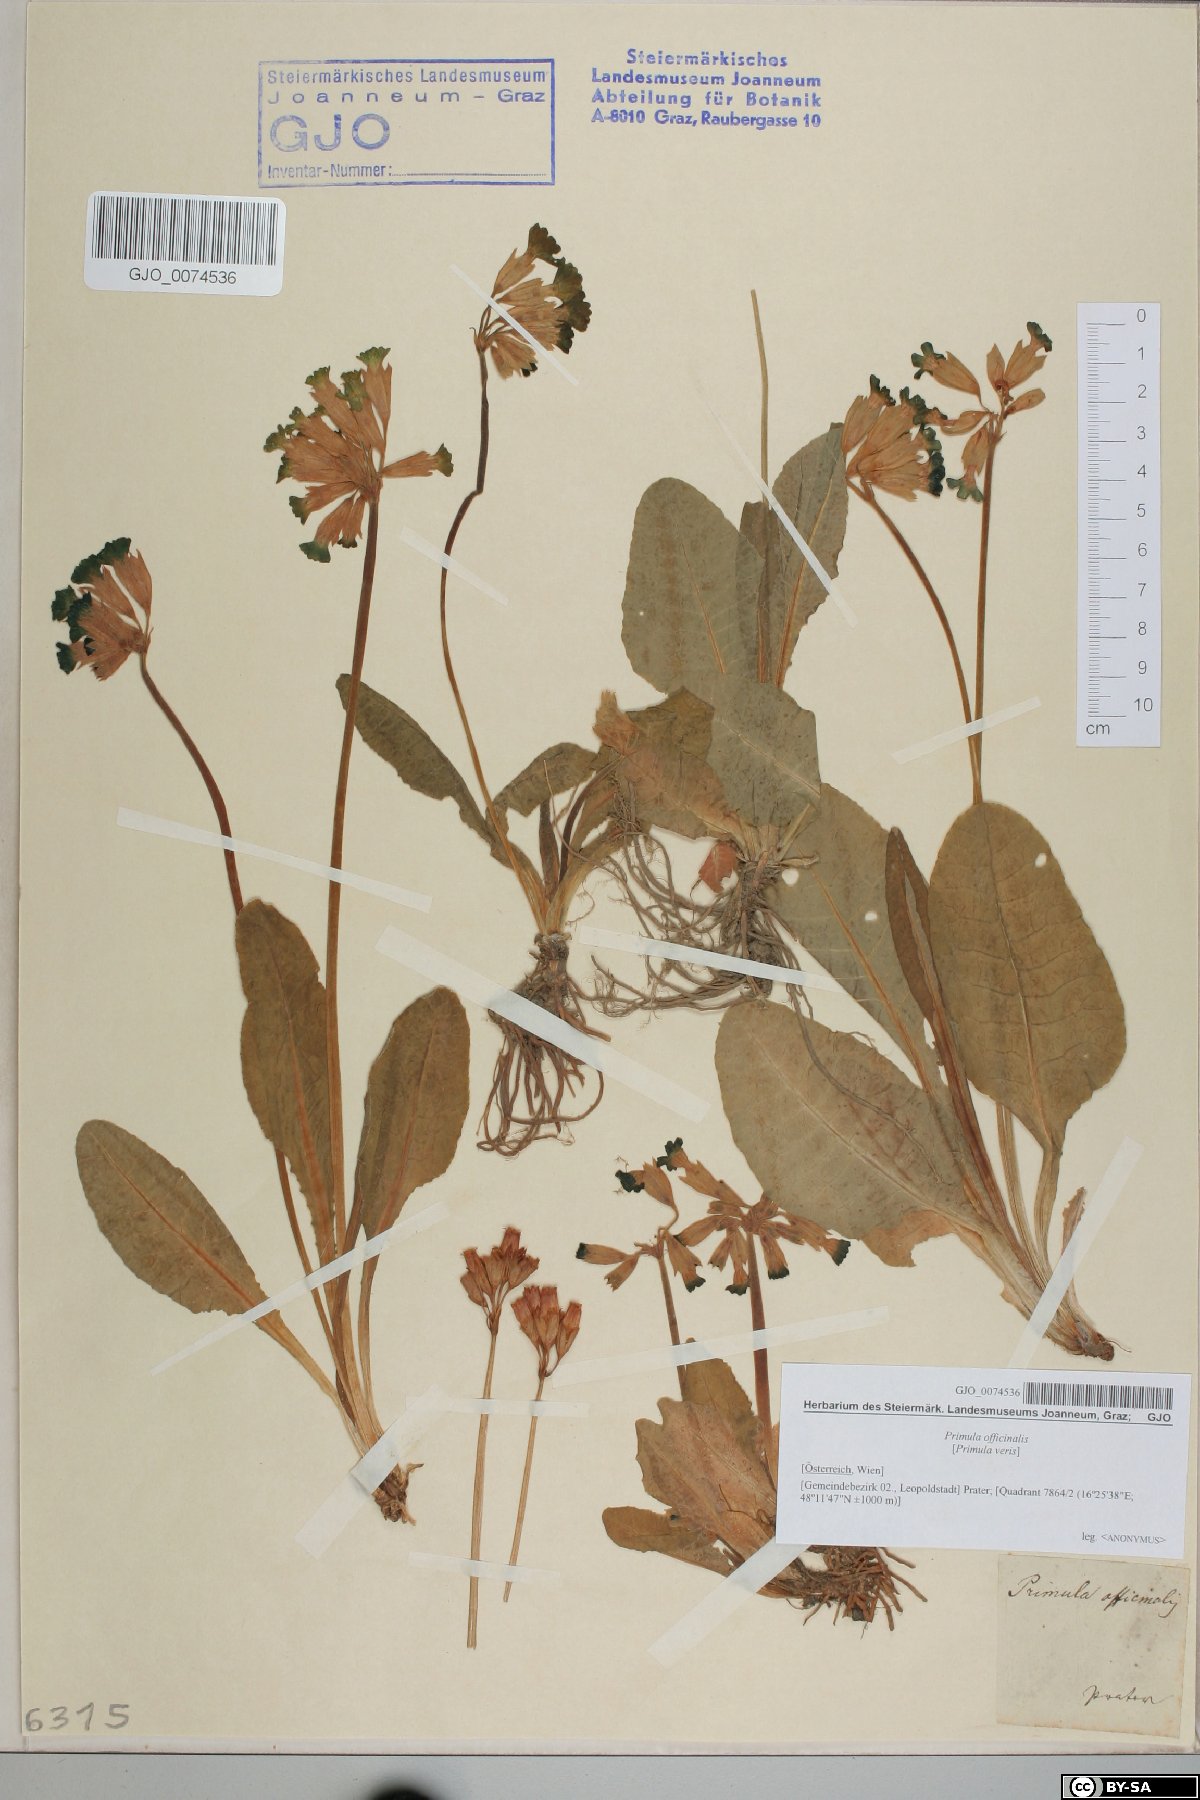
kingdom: Plantae
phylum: Tracheophyta
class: Magnoliopsida
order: Ericales
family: Primulaceae
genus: Primula
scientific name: Primula veris
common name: Cowslip
